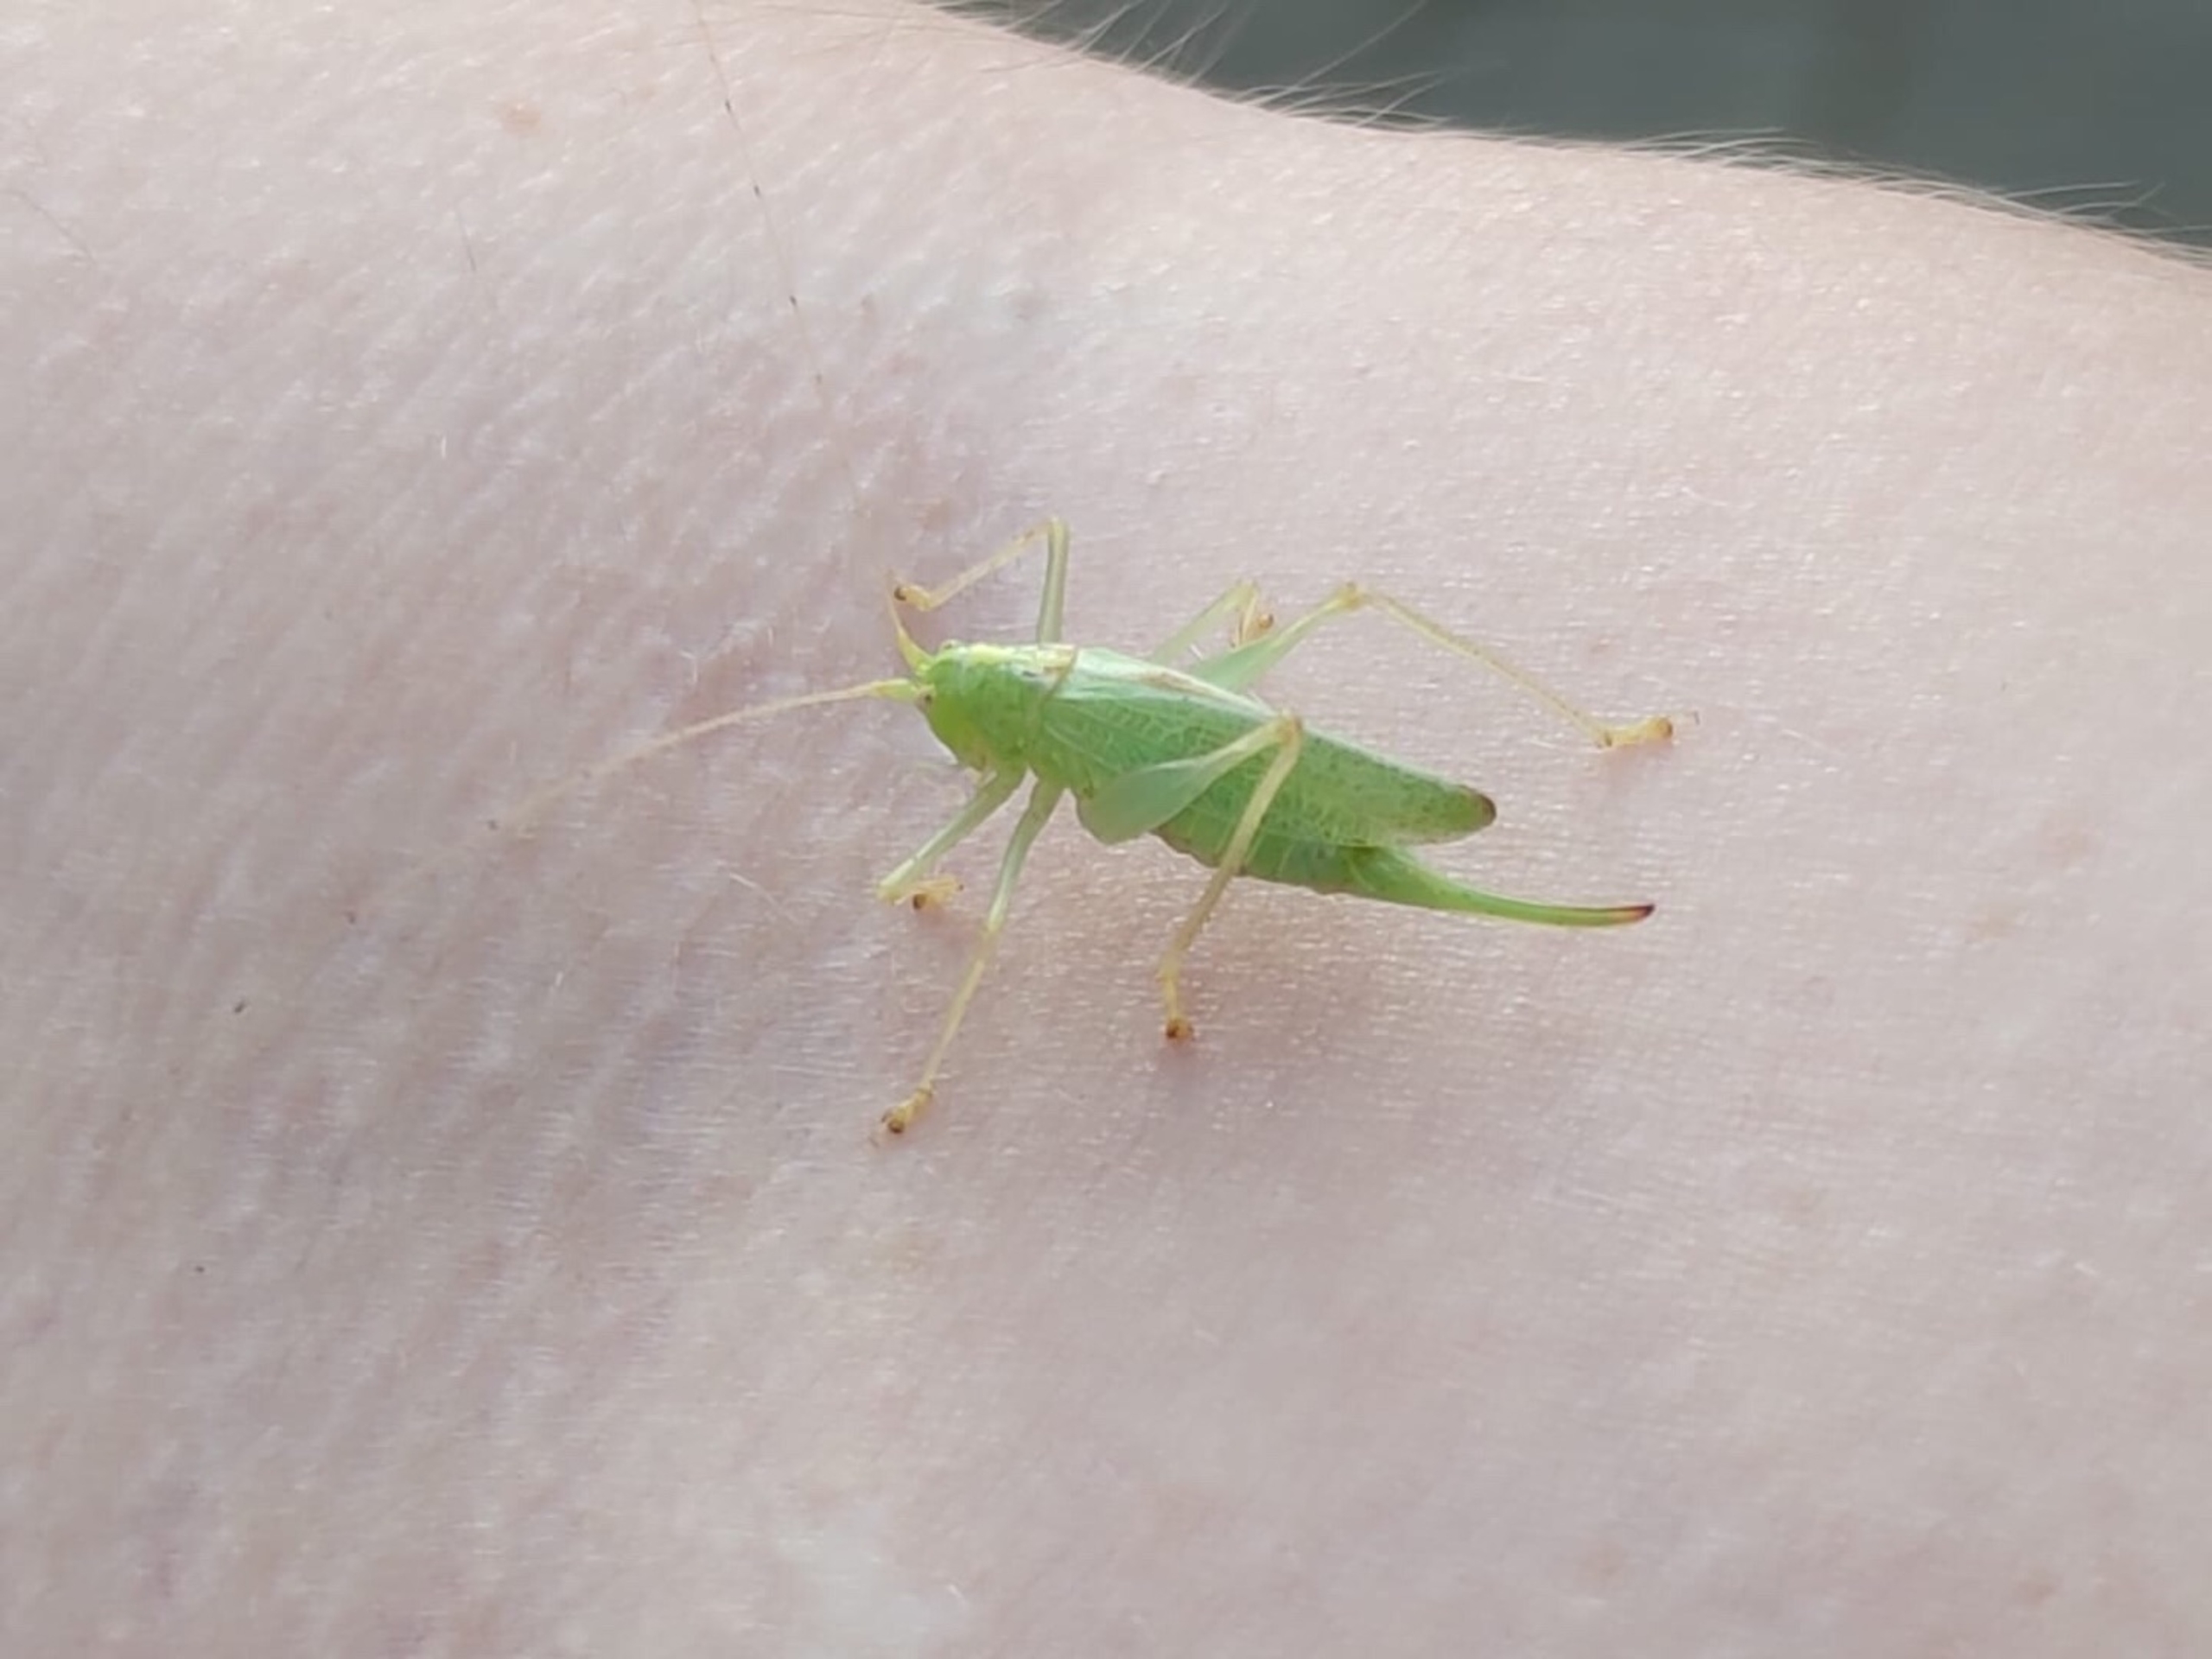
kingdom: Animalia
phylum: Arthropoda
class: Insecta
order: Orthoptera
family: Tettigoniidae
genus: Meconema
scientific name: Meconema thalassinum
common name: Egegræshoppe
